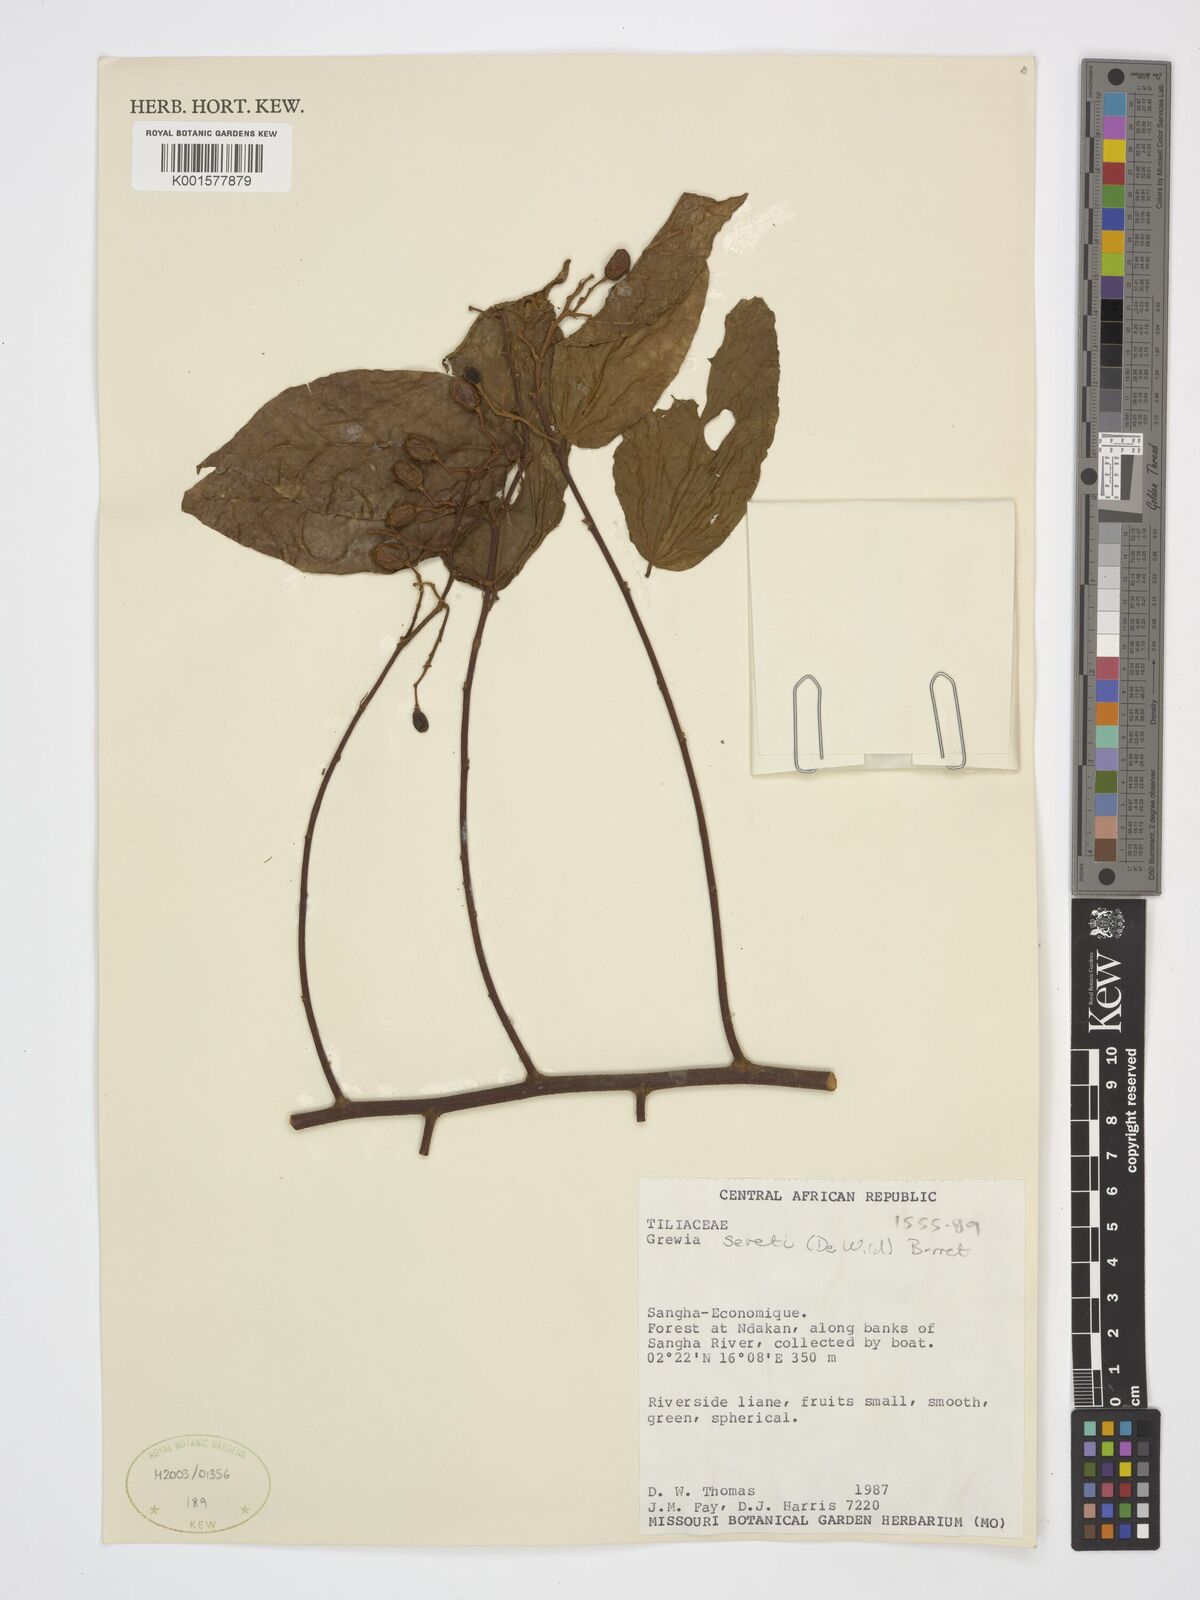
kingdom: Plantae
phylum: Tracheophyta
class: Magnoliopsida
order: Malvales
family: Malvaceae
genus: Microcos
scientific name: Microcos seretii
